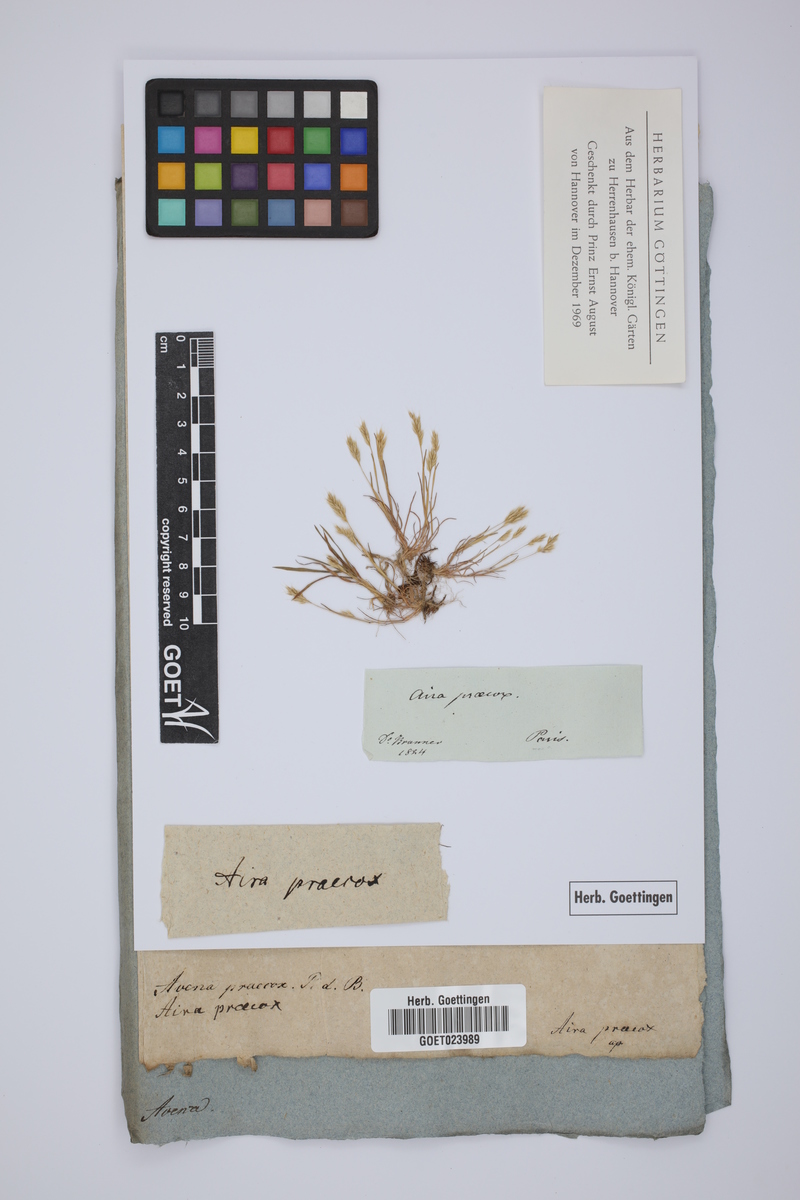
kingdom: Plantae
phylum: Tracheophyta
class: Liliopsida
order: Poales
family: Poaceae
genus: Aira
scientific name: Aira praecox
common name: Early hair-grass
